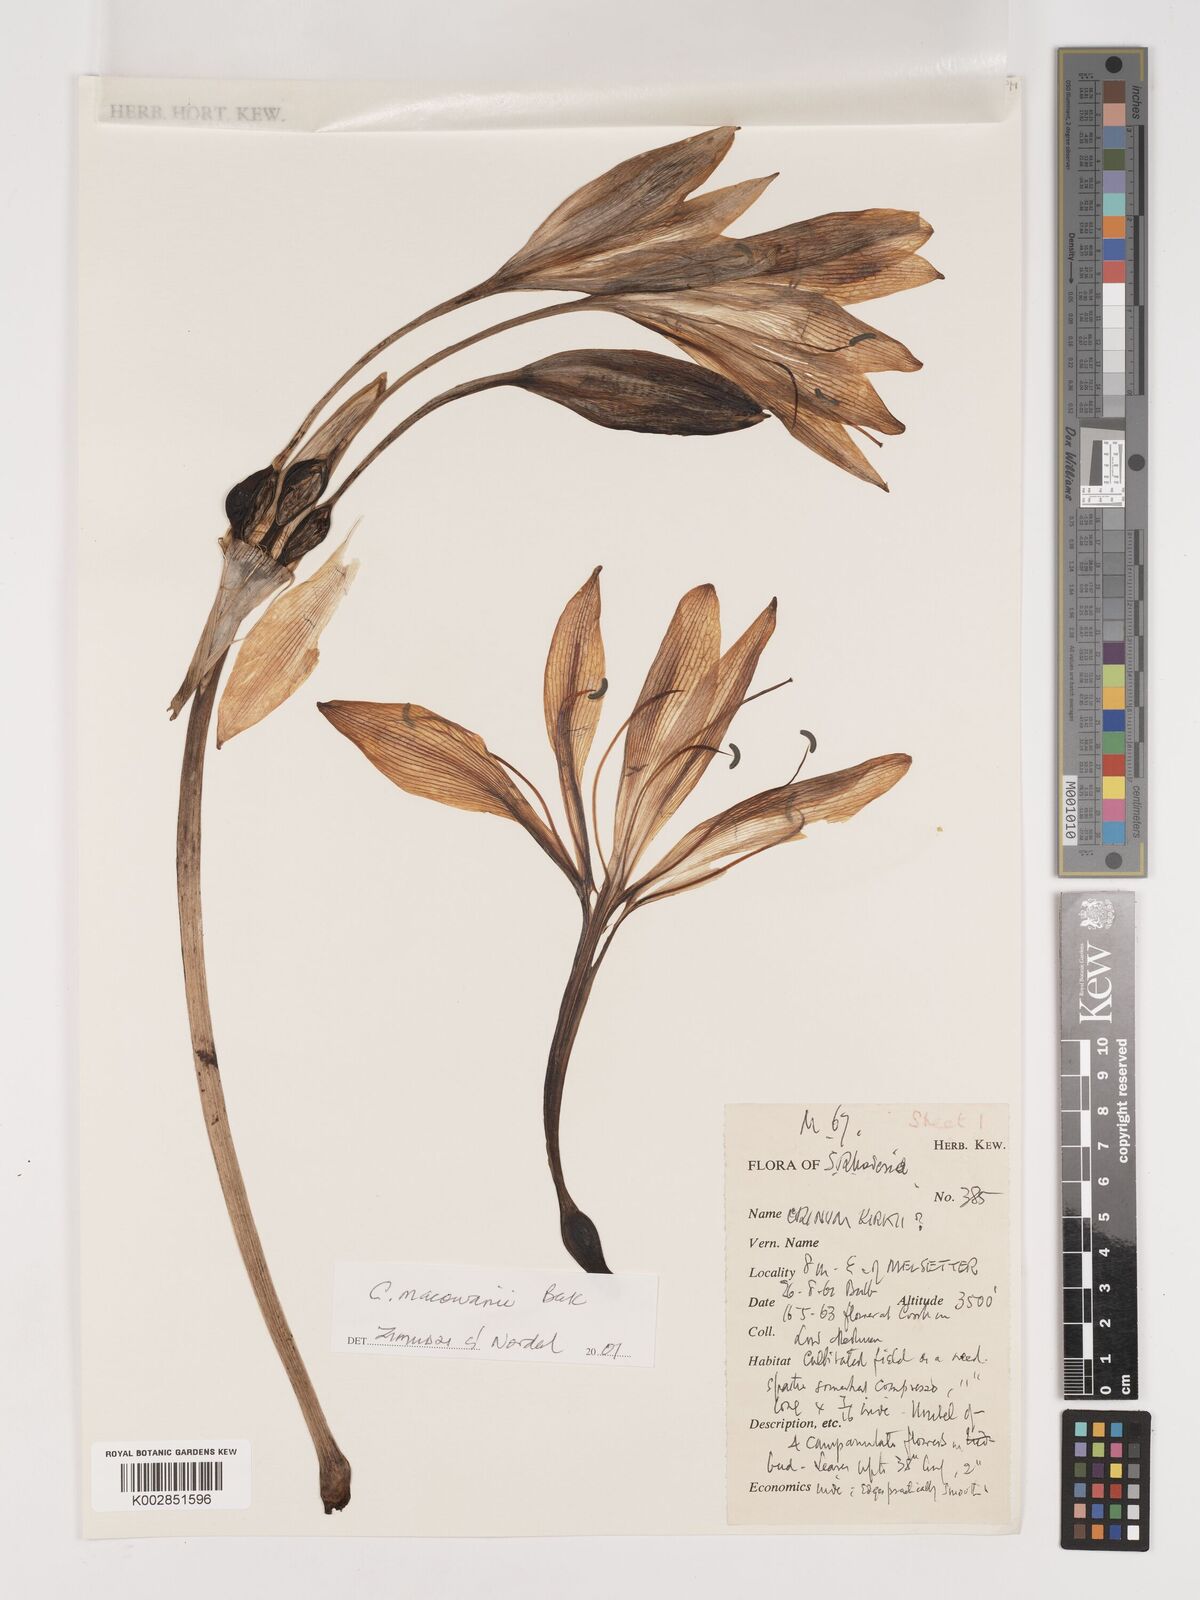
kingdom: Plantae
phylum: Tracheophyta
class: Liliopsida
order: Asparagales
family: Amaryllidaceae
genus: Crinum
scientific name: Crinum macowanii
